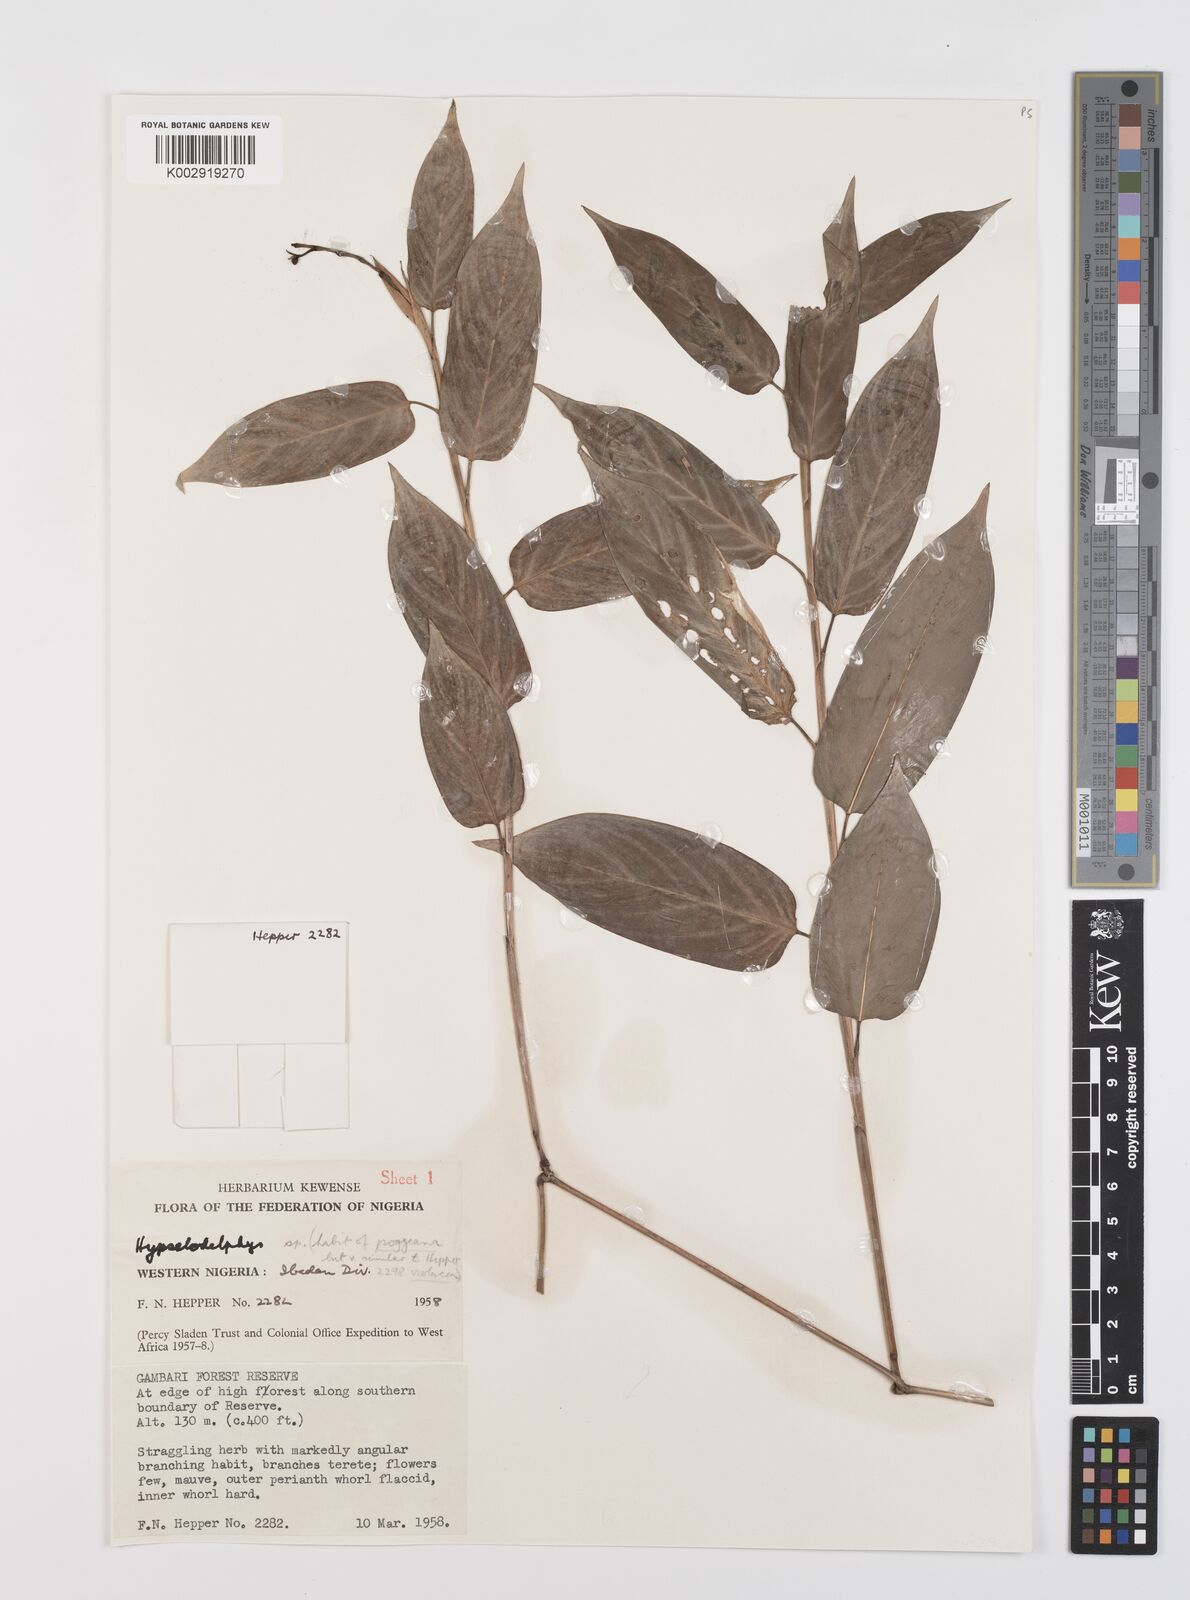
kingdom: Plantae
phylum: Tracheophyta
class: Liliopsida
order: Zingiberales
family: Marantaceae
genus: Hypselodelphys
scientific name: Hypselodelphys
